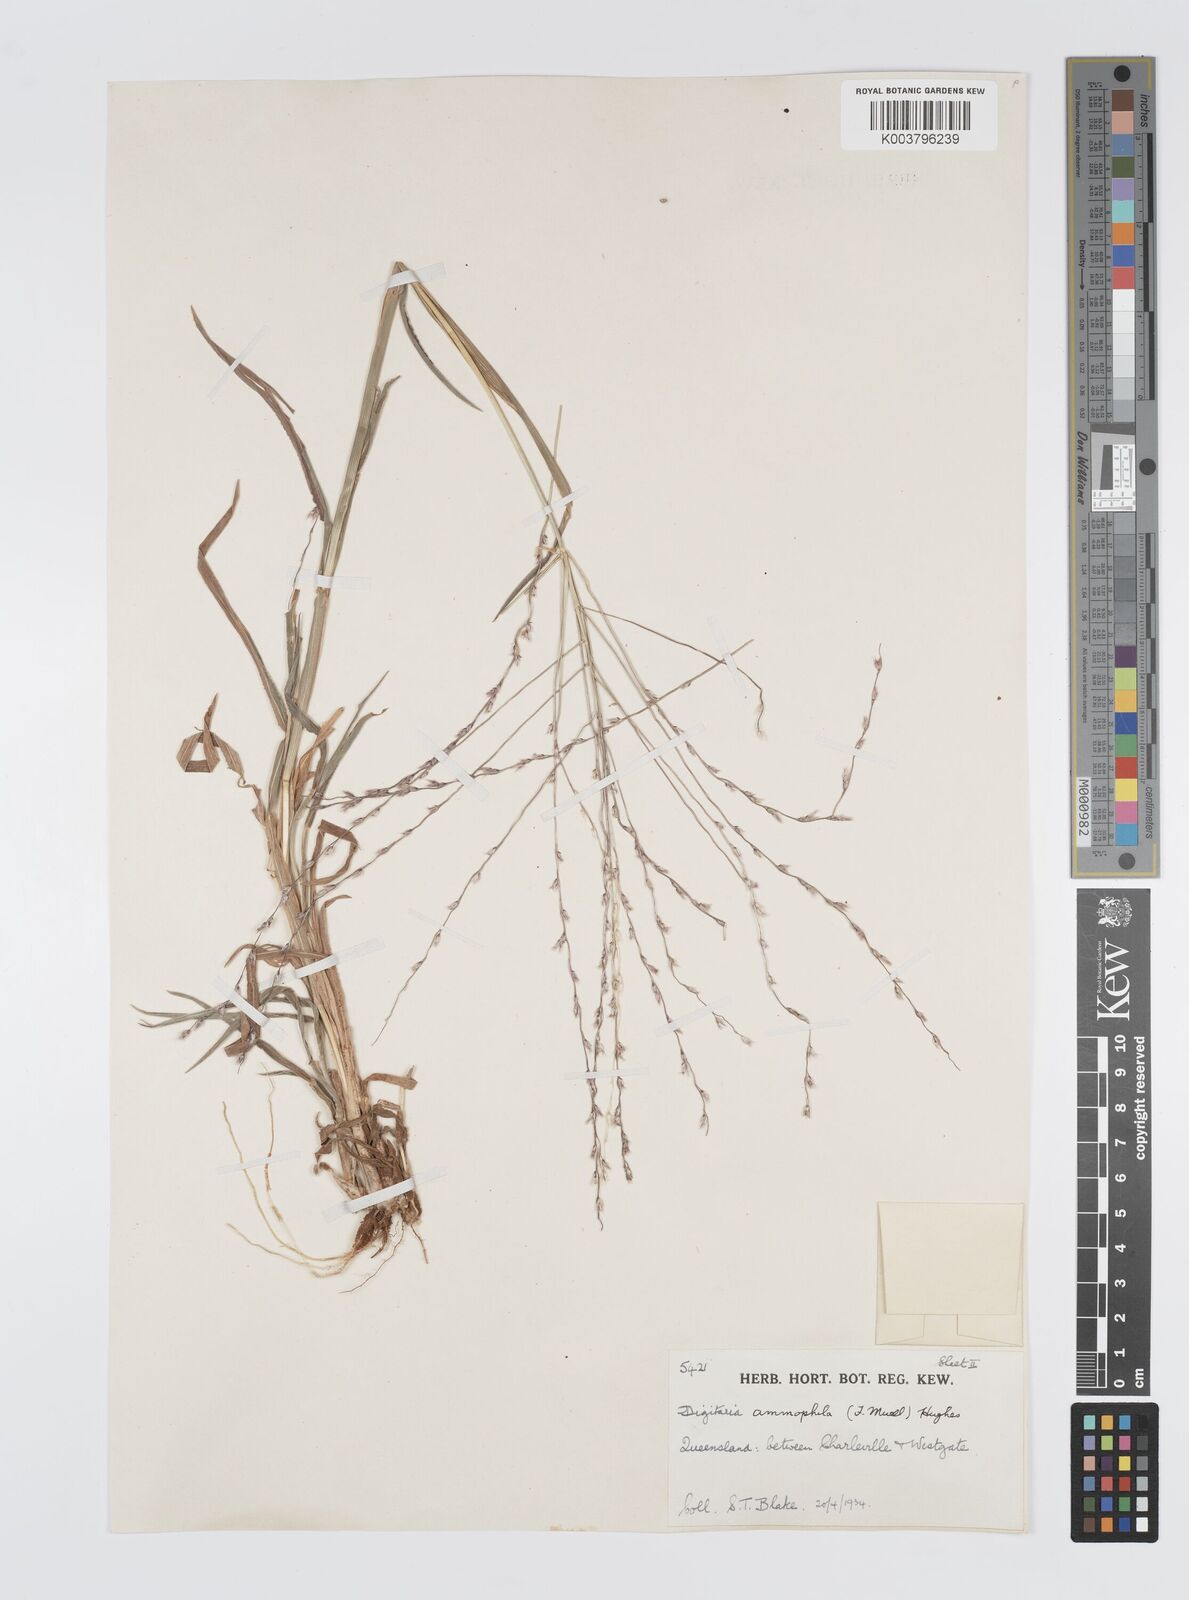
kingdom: Plantae
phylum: Tracheophyta
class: Liliopsida
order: Poales
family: Poaceae
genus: Digitaria
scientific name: Digitaria ammophila
